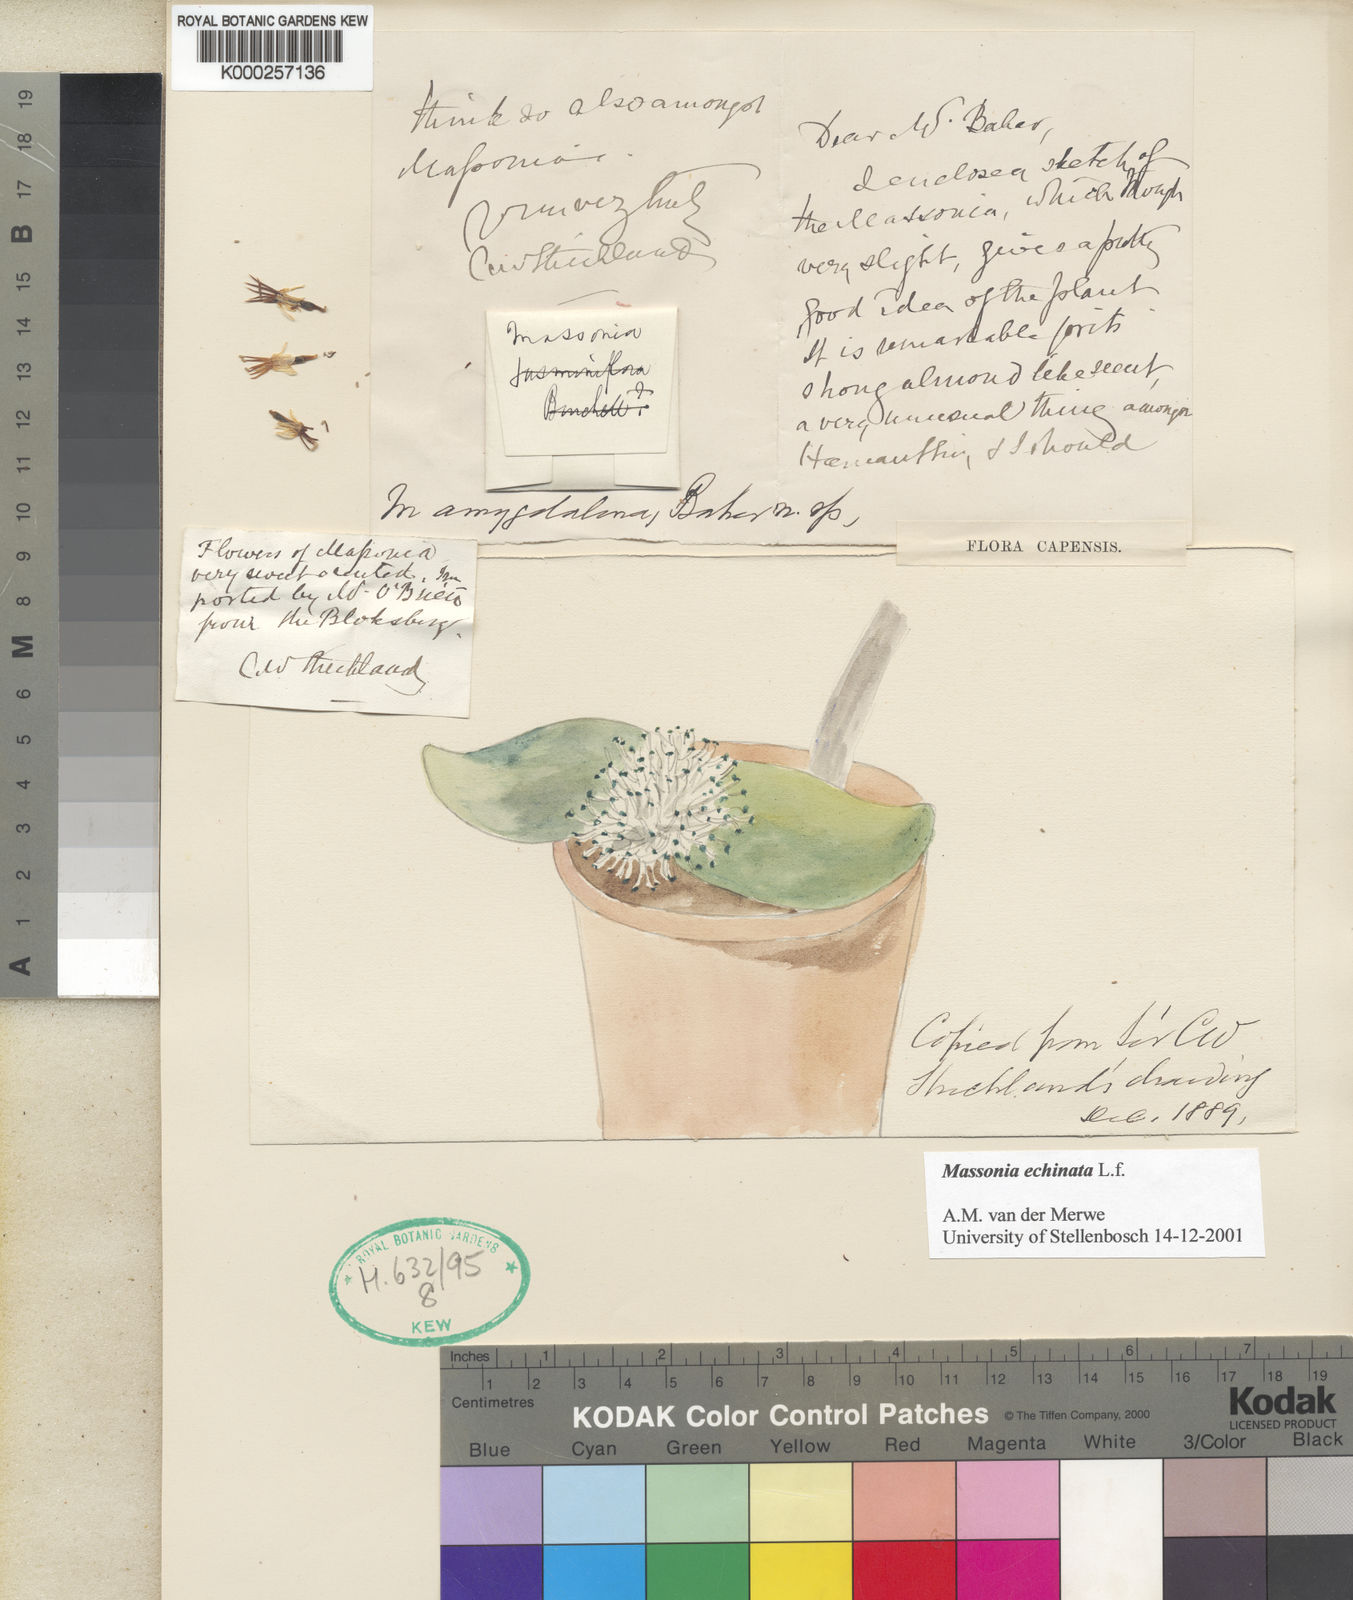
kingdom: Plantae
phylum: Tracheophyta
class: Liliopsida
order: Asparagales
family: Asparagaceae
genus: Massonia
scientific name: Massonia echinata
